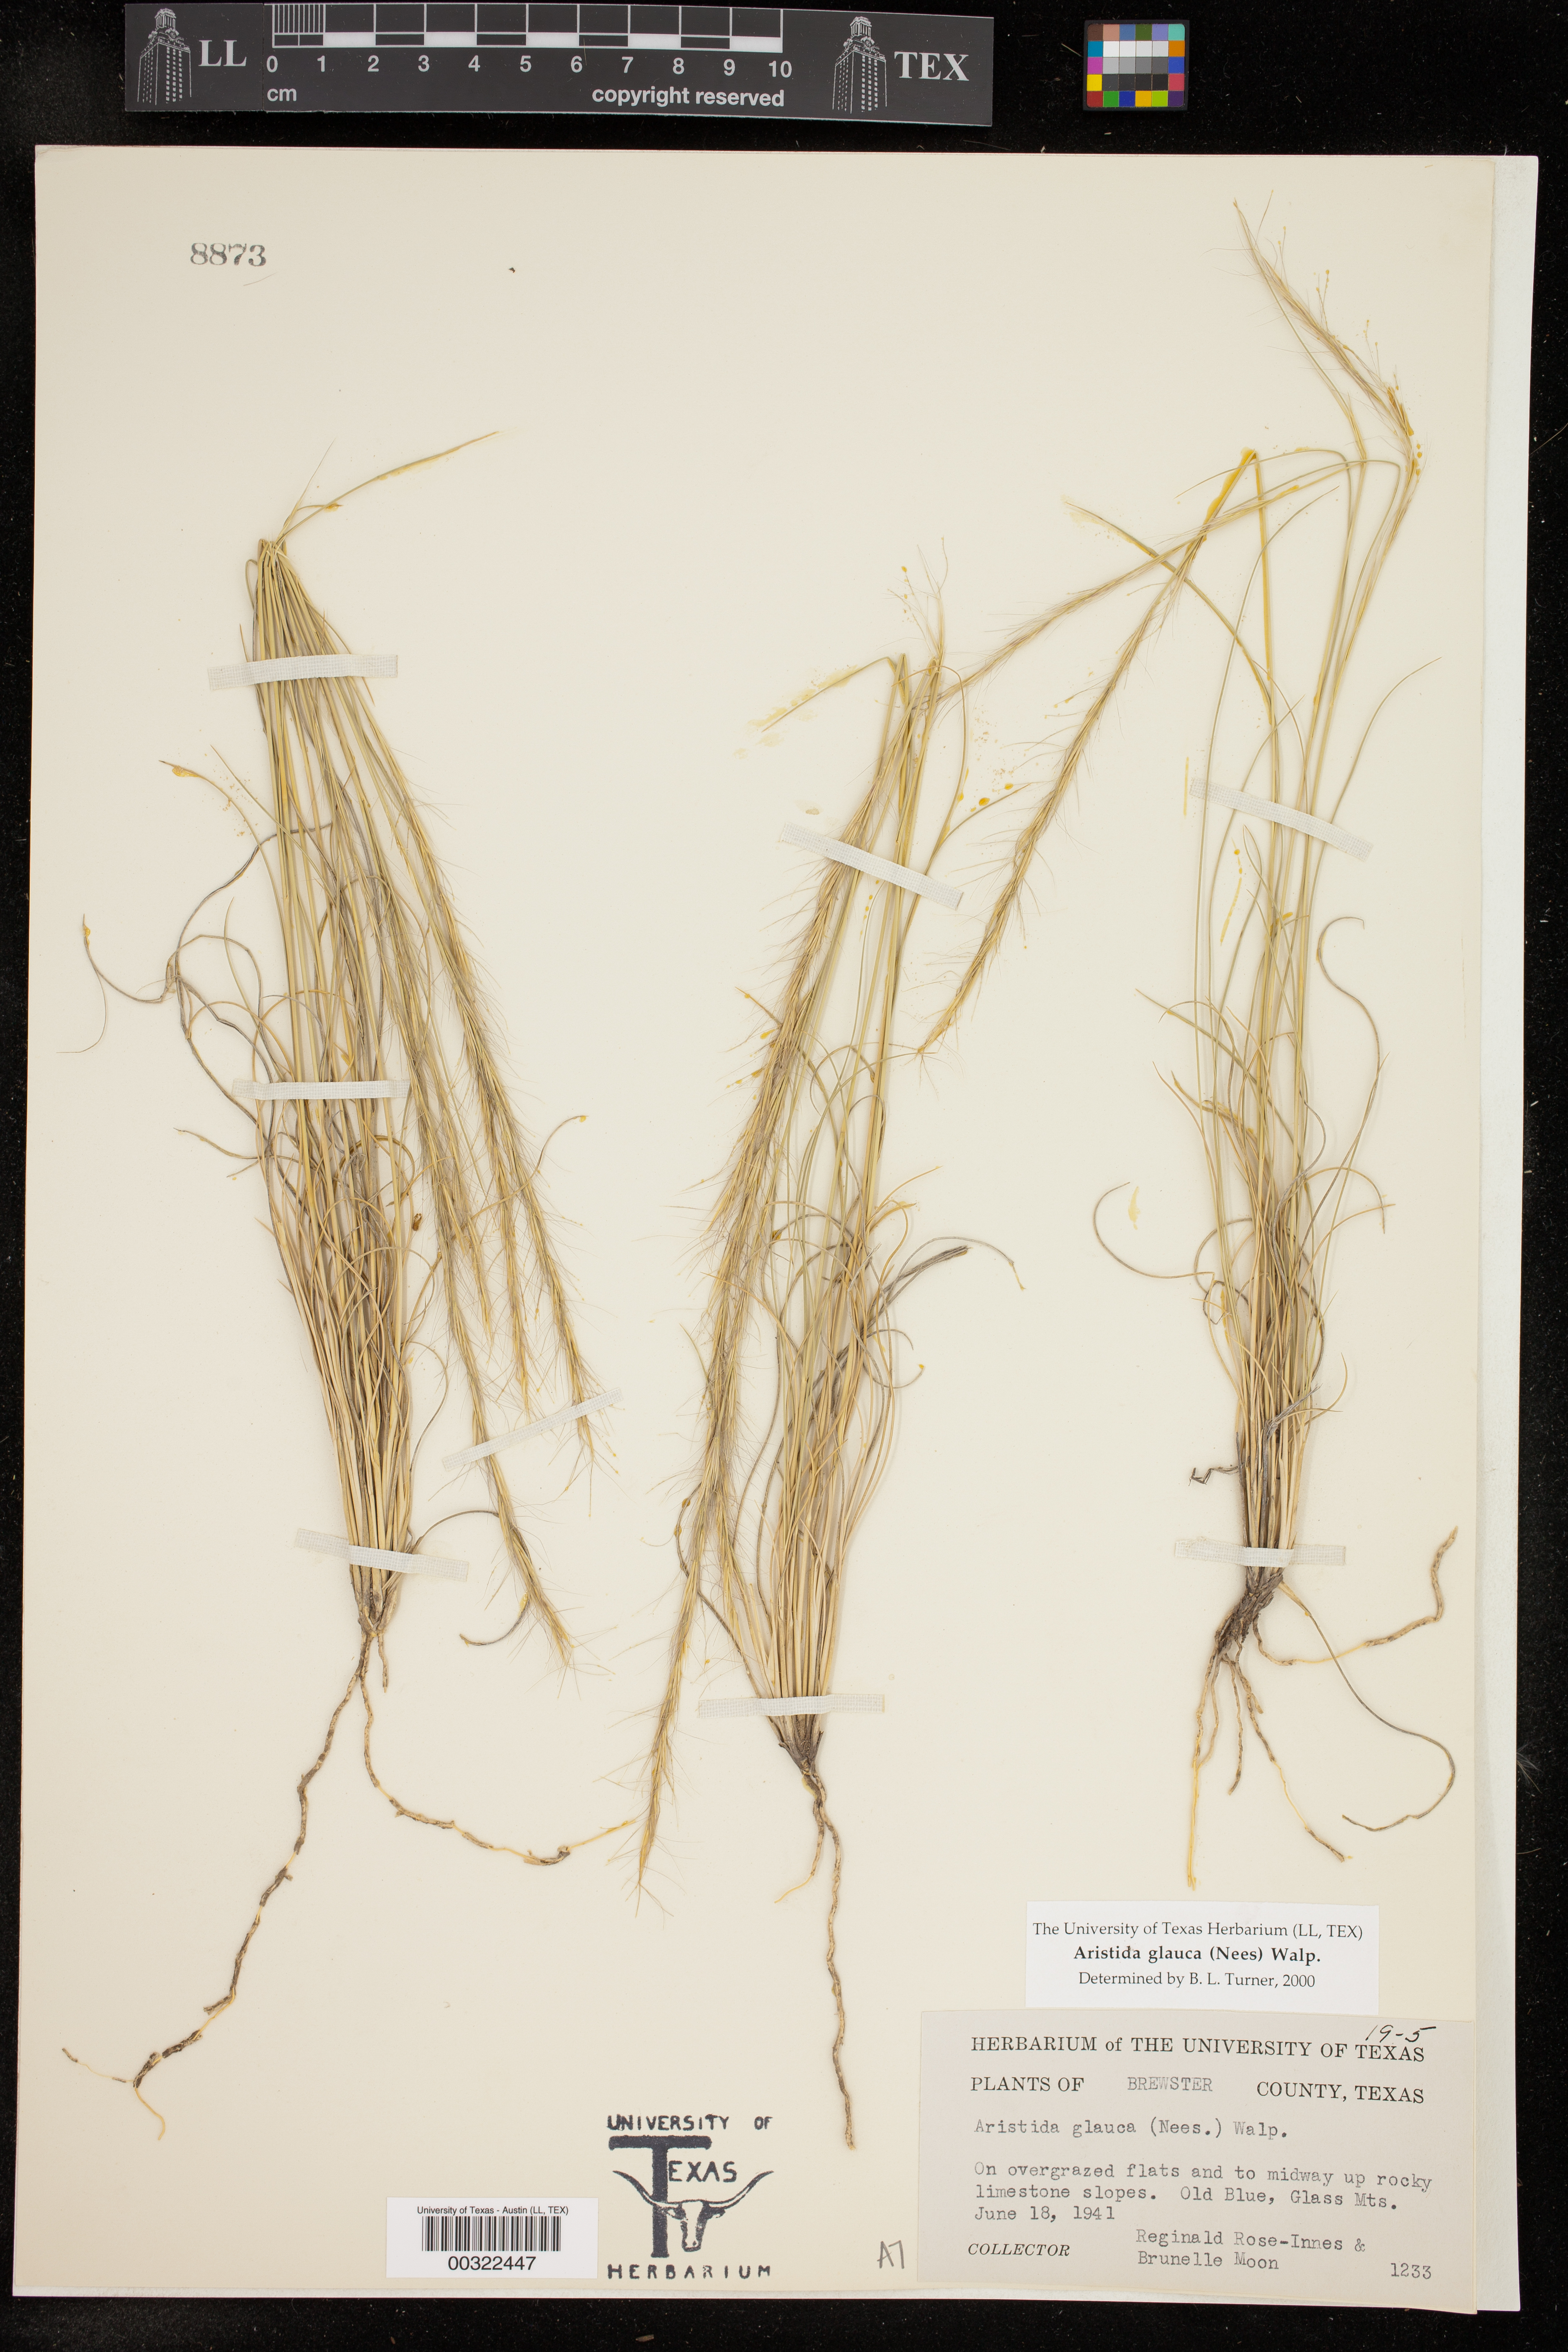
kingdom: Plantae
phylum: Tracheophyta
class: Liliopsida
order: Poales
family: Poaceae
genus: Aristida
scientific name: Aristida glauca
